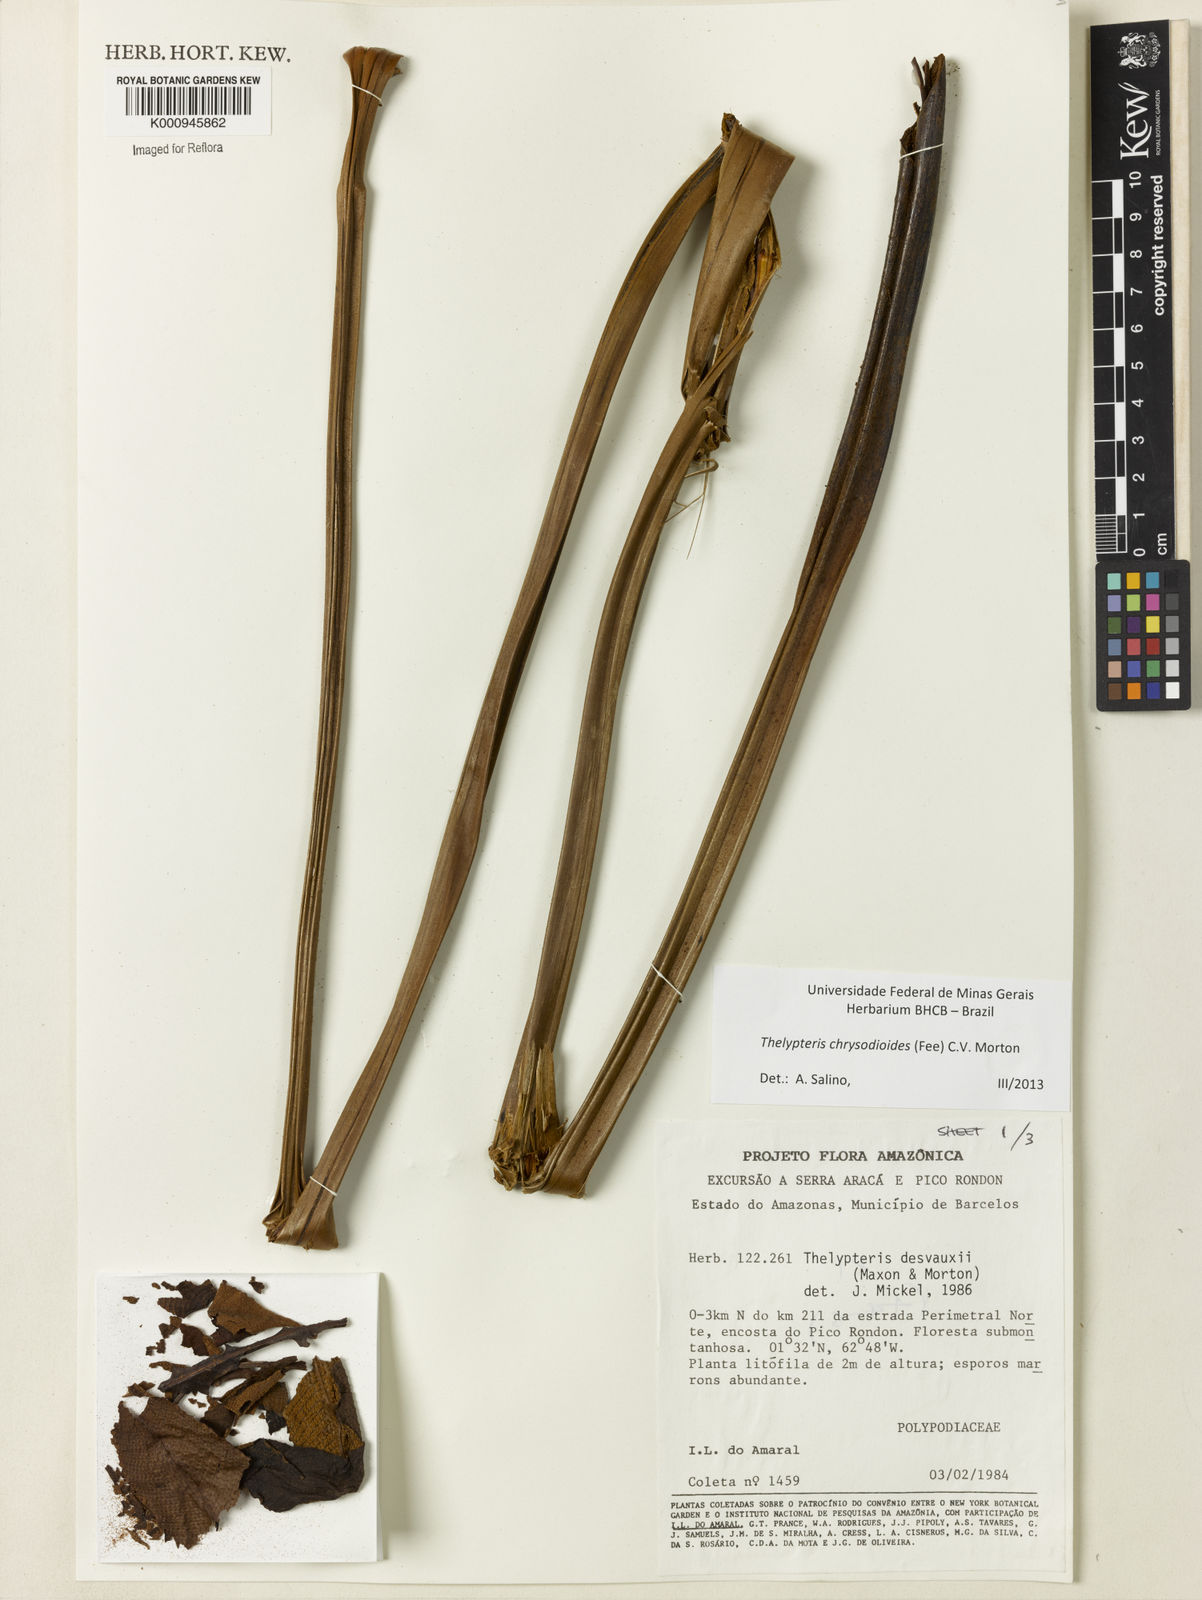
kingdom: Plantae
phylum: Tracheophyta
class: Polypodiopsida
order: Polypodiales
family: Thelypteridaceae
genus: Meniscium
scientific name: Meniscium
